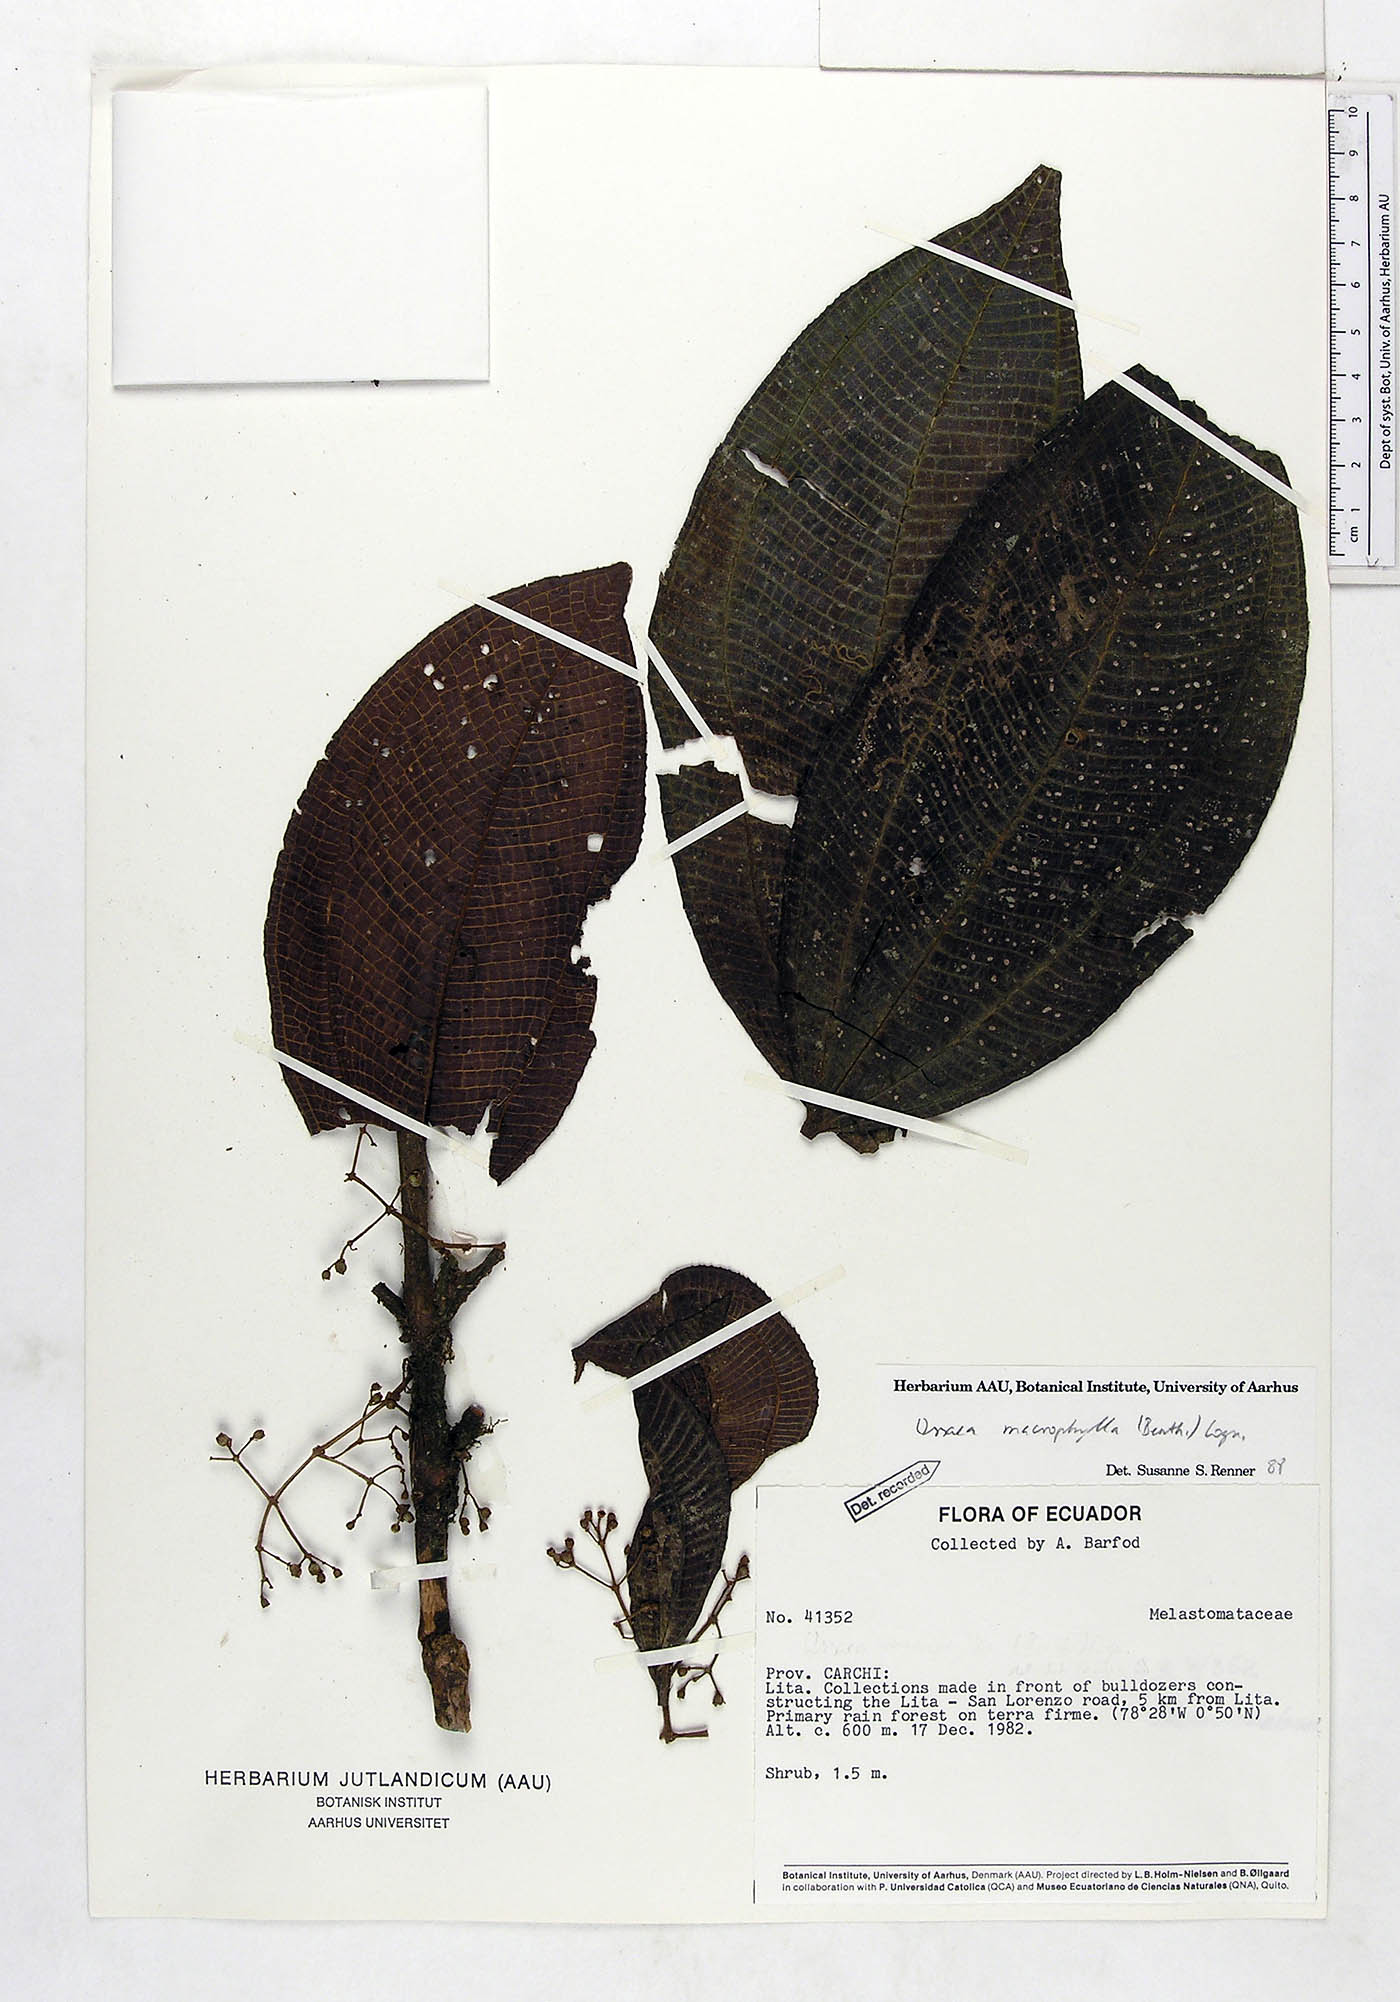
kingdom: Plantae
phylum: Tracheophyta
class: Magnoliopsida
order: Myrtales
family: Melastomataceae
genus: Miconia
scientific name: Miconia magnifolia
